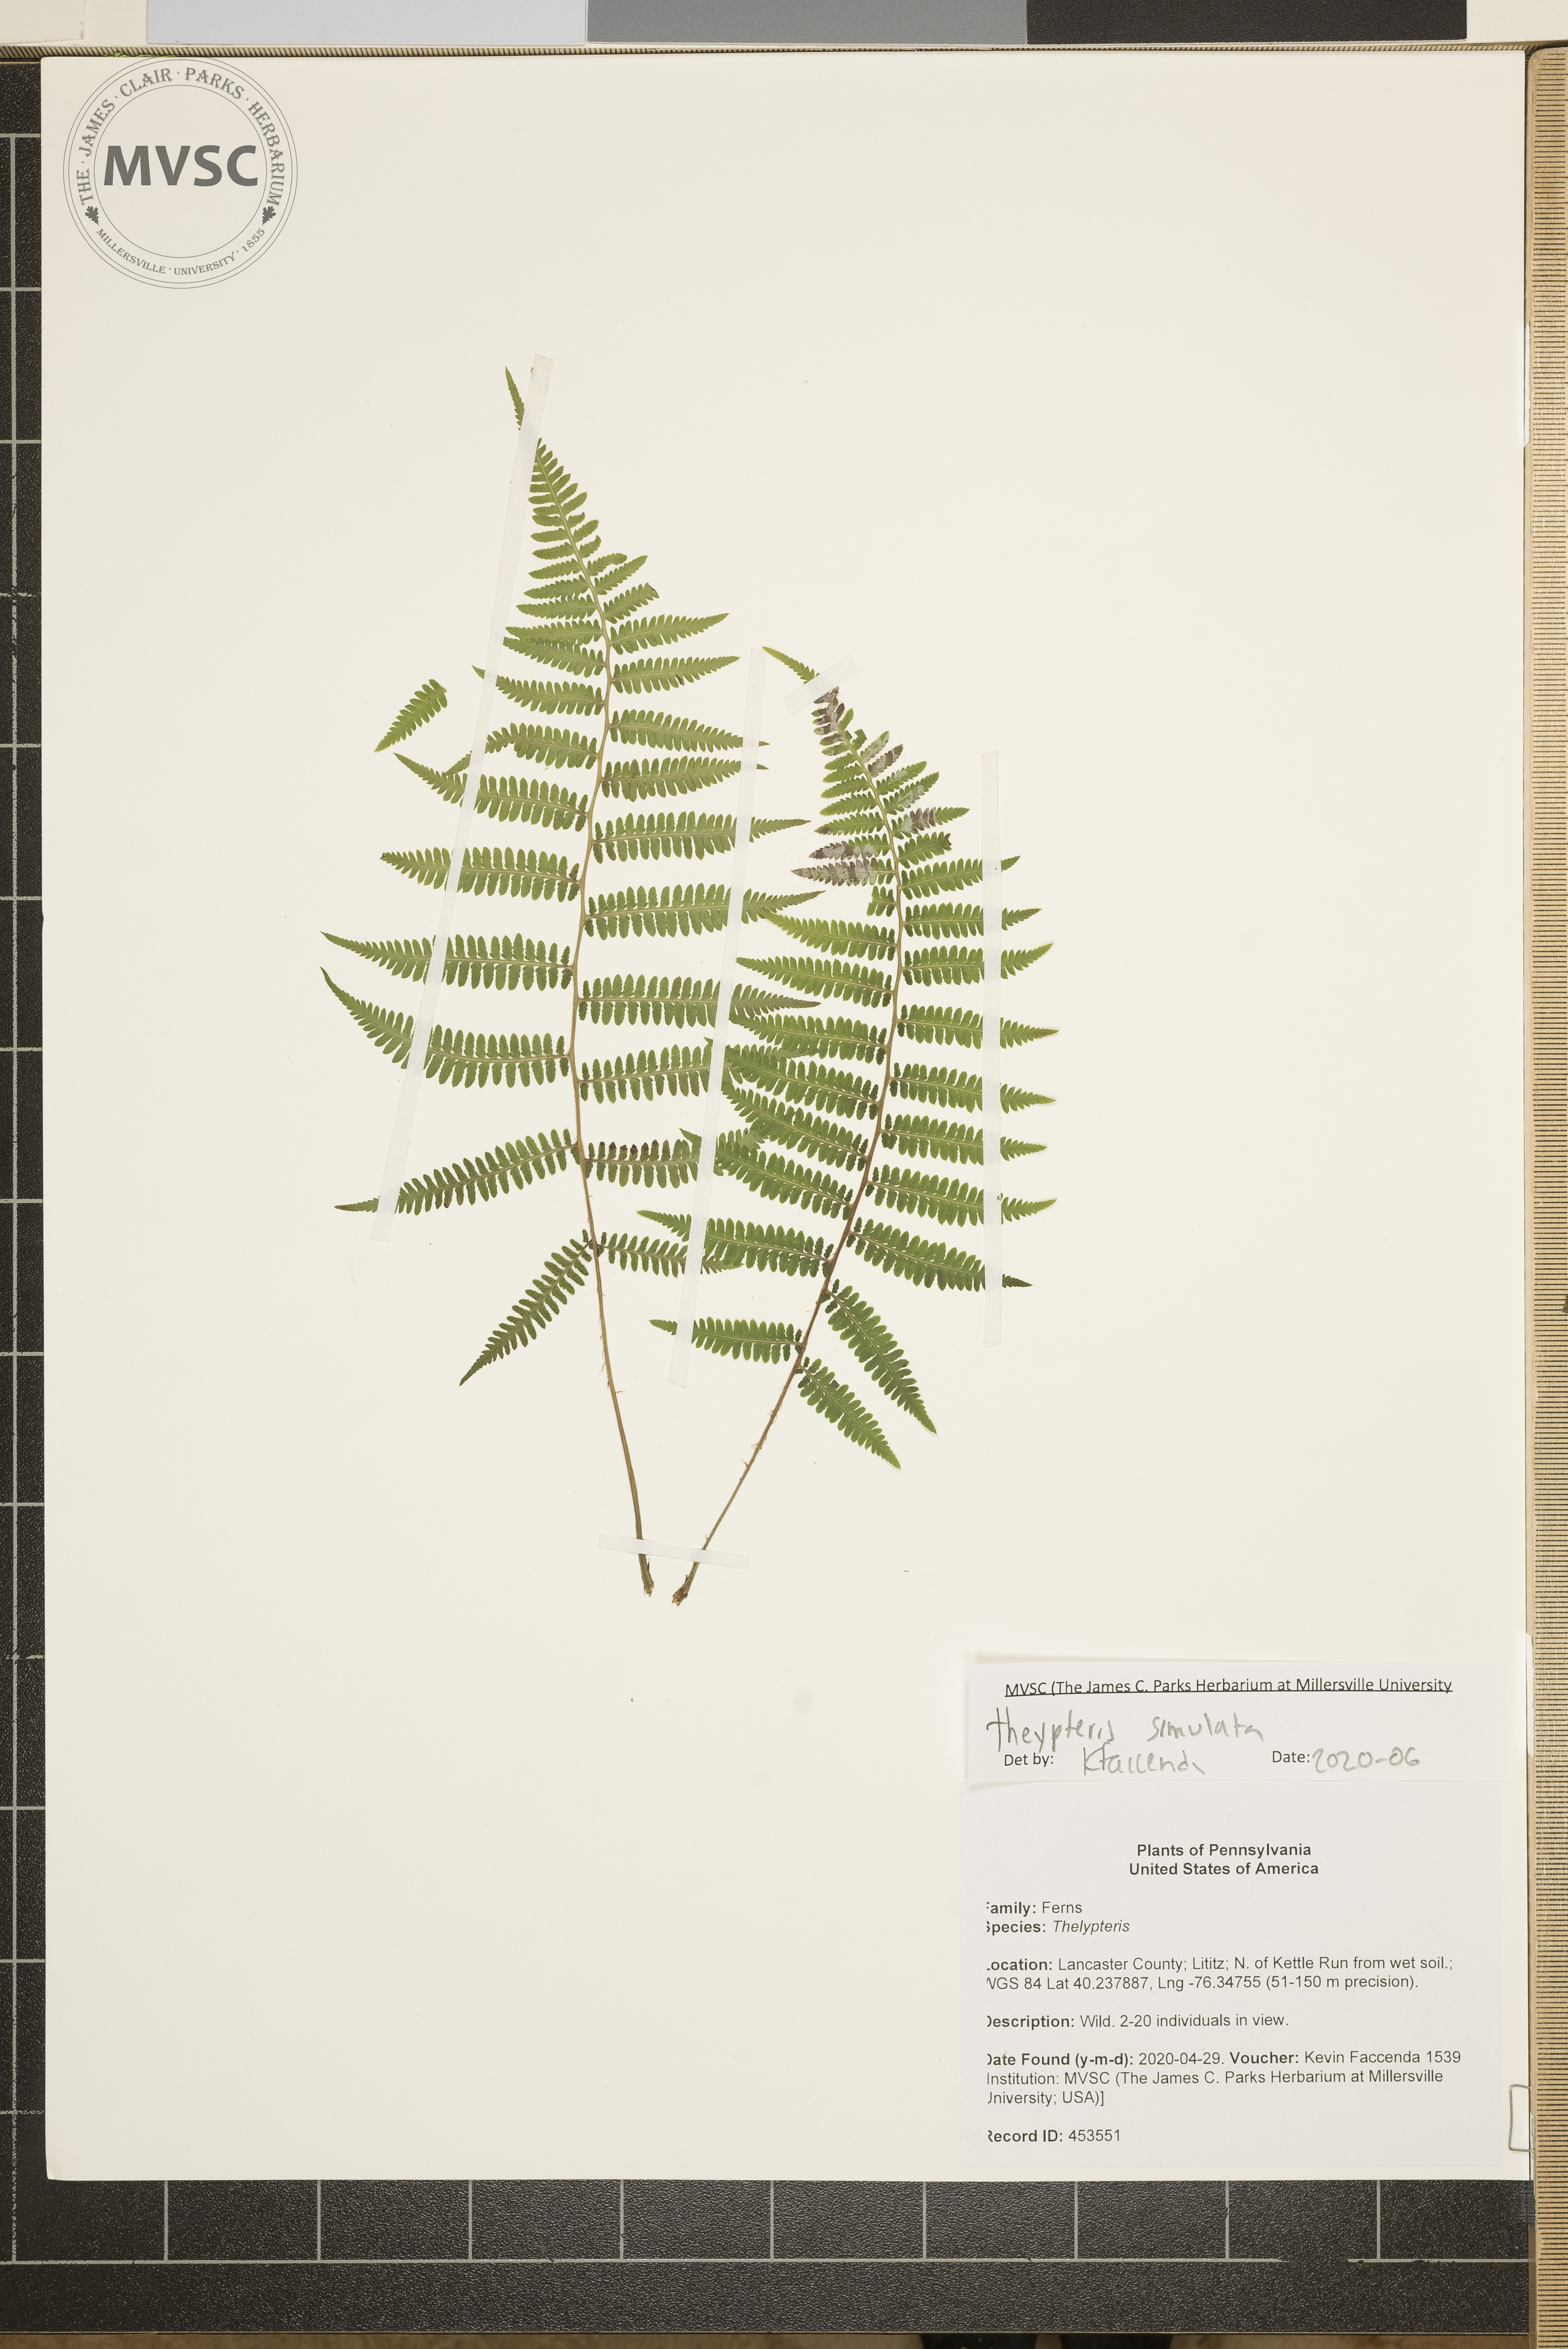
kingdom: Plantae
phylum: Tracheophyta
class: Polypodiopsida
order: Polypodiales
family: Thelypteridaceae
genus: Coryphopteris
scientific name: Coryphopteris simulata
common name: Bog fern
